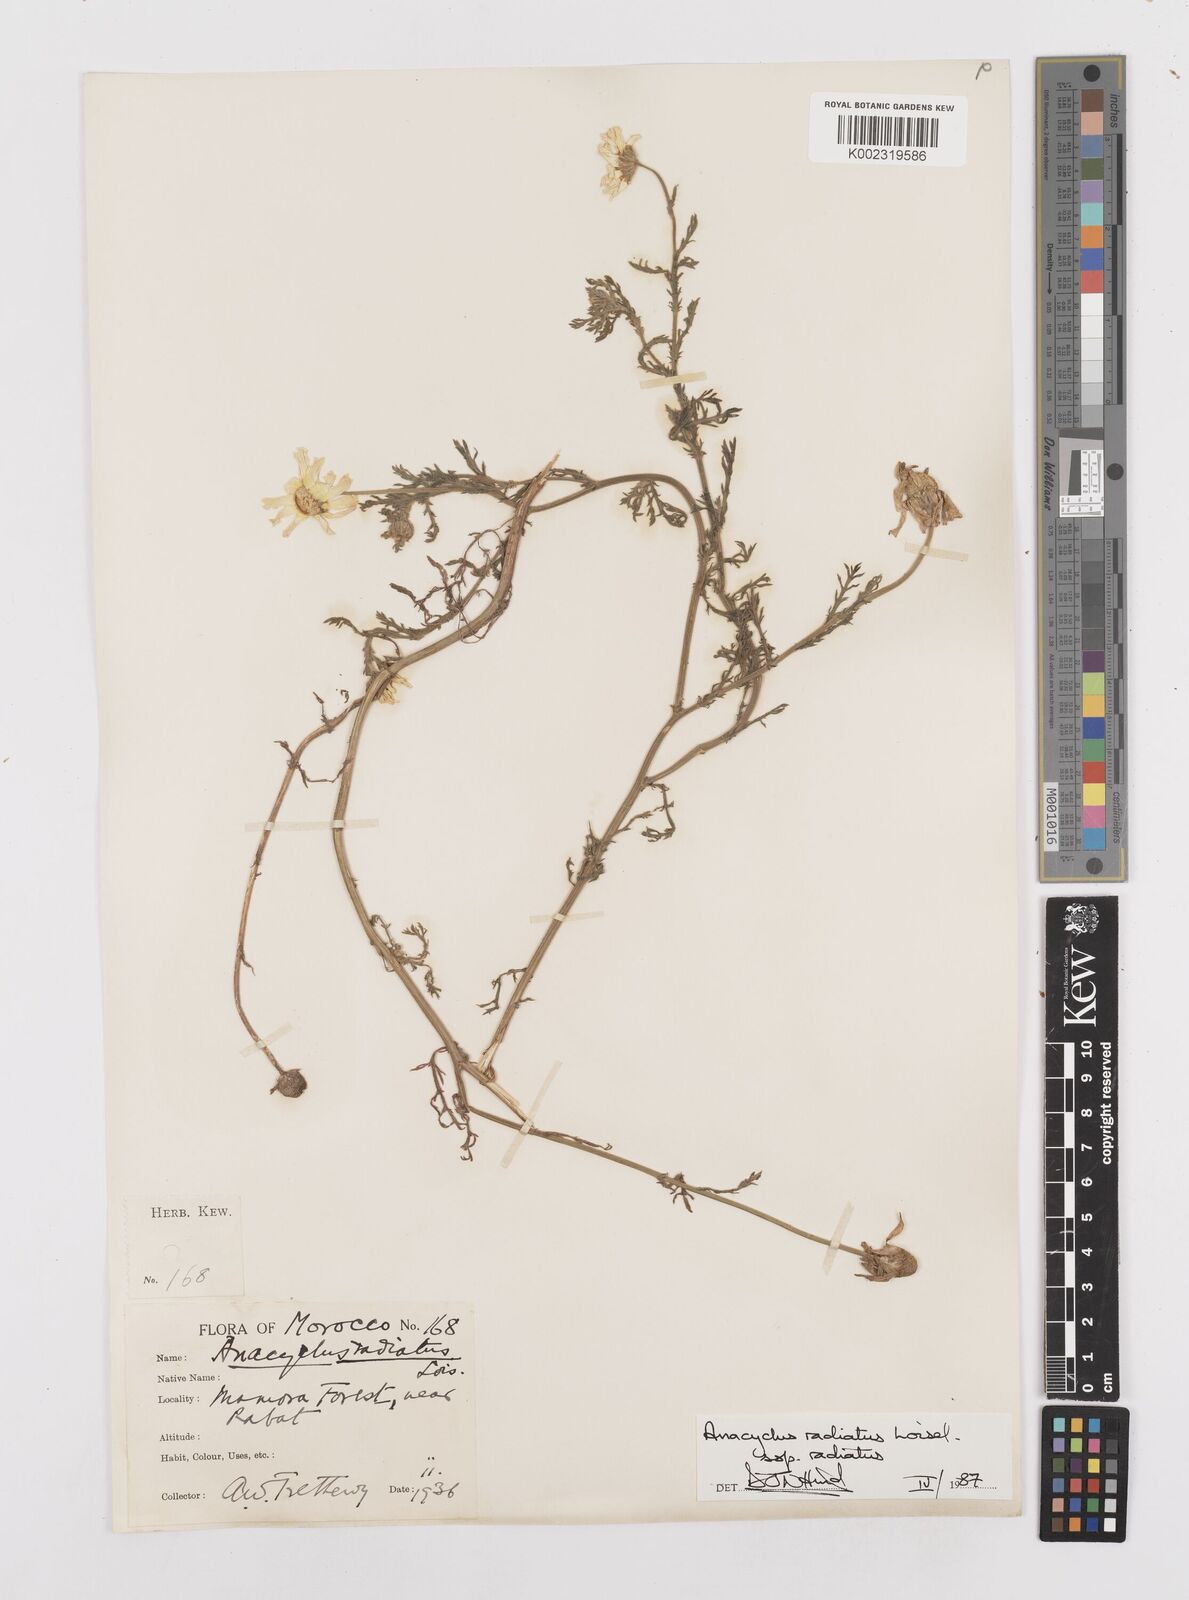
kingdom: Plantae
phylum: Tracheophyta
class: Magnoliopsida
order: Asterales
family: Asteraceae
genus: Anacyclus
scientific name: Anacyclus radiatus
